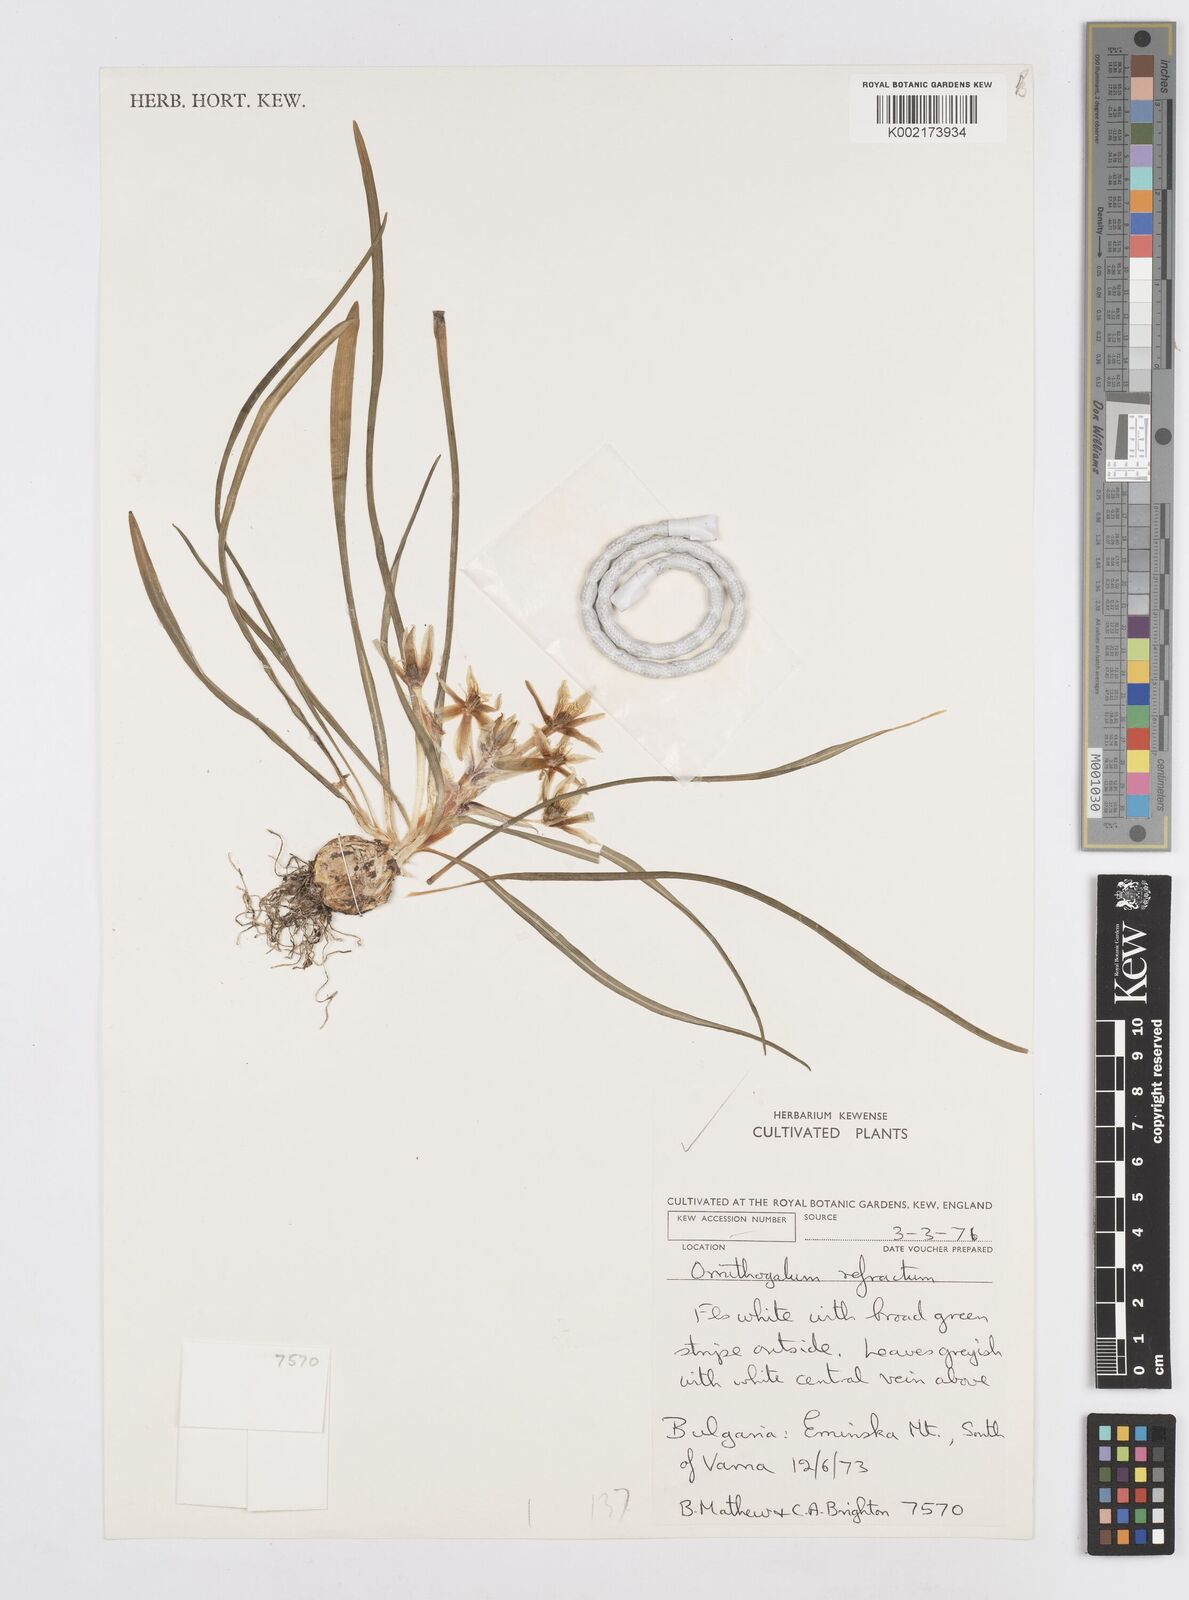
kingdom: Plantae
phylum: Tracheophyta
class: Liliopsida
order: Asparagales
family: Asparagaceae
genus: Ornithogalum
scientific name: Ornithogalum refractum
